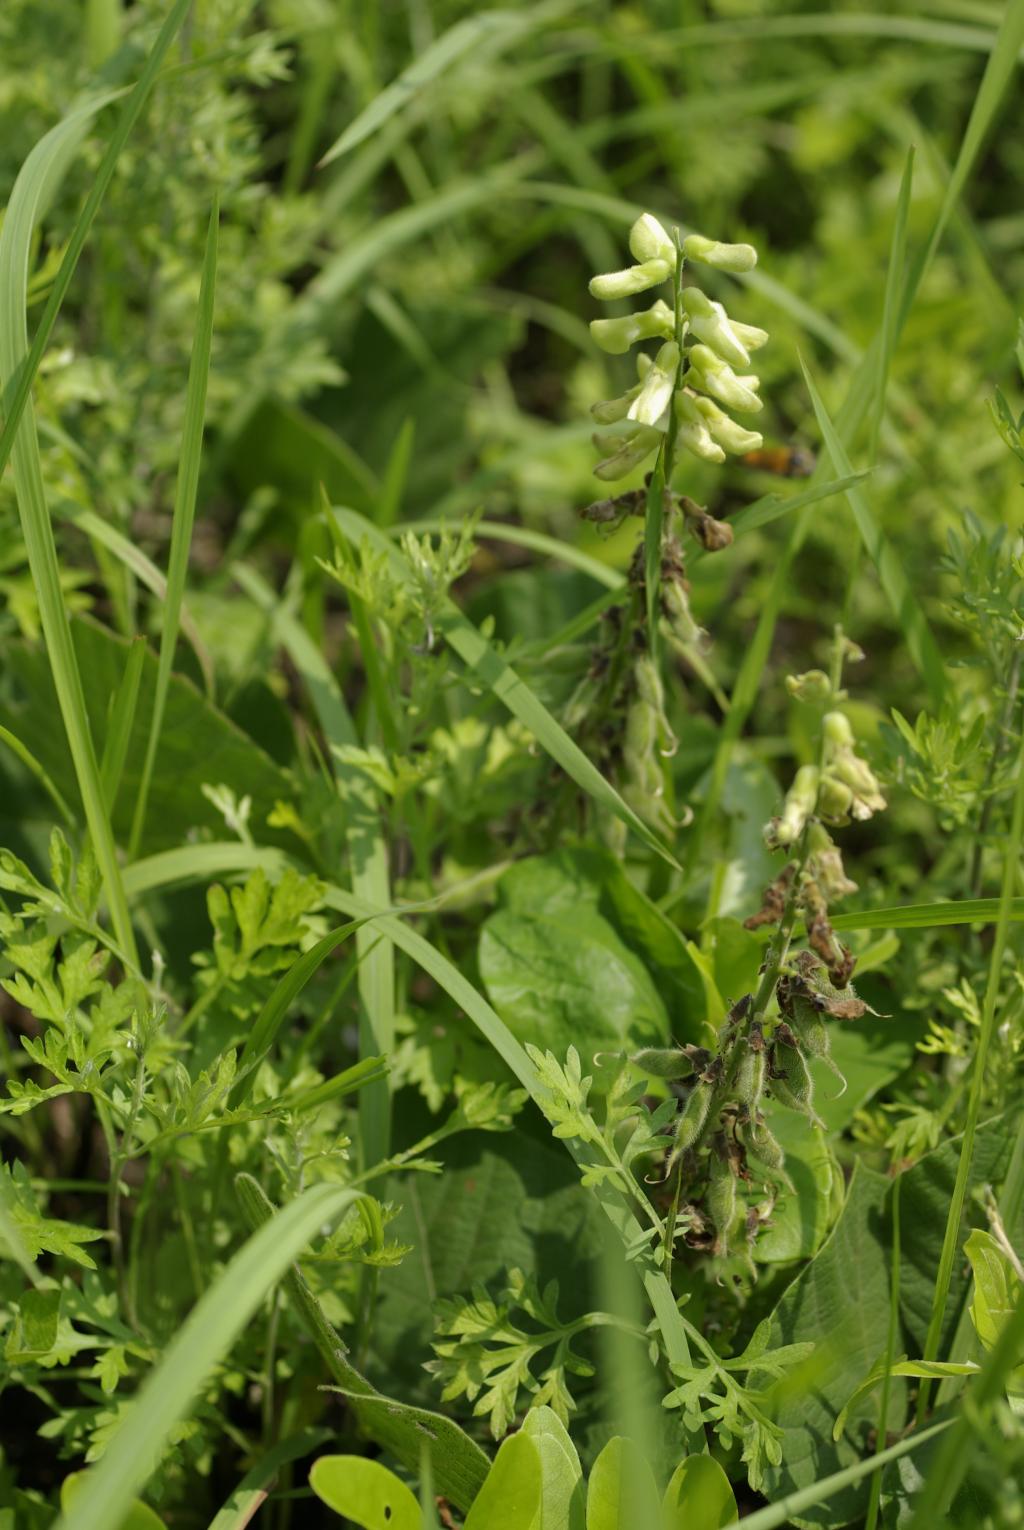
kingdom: Plantae
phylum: Tracheophyta
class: Magnoliopsida
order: Fabales
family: Fabaceae
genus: Rhynchosia
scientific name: Rhynchosia rothii
